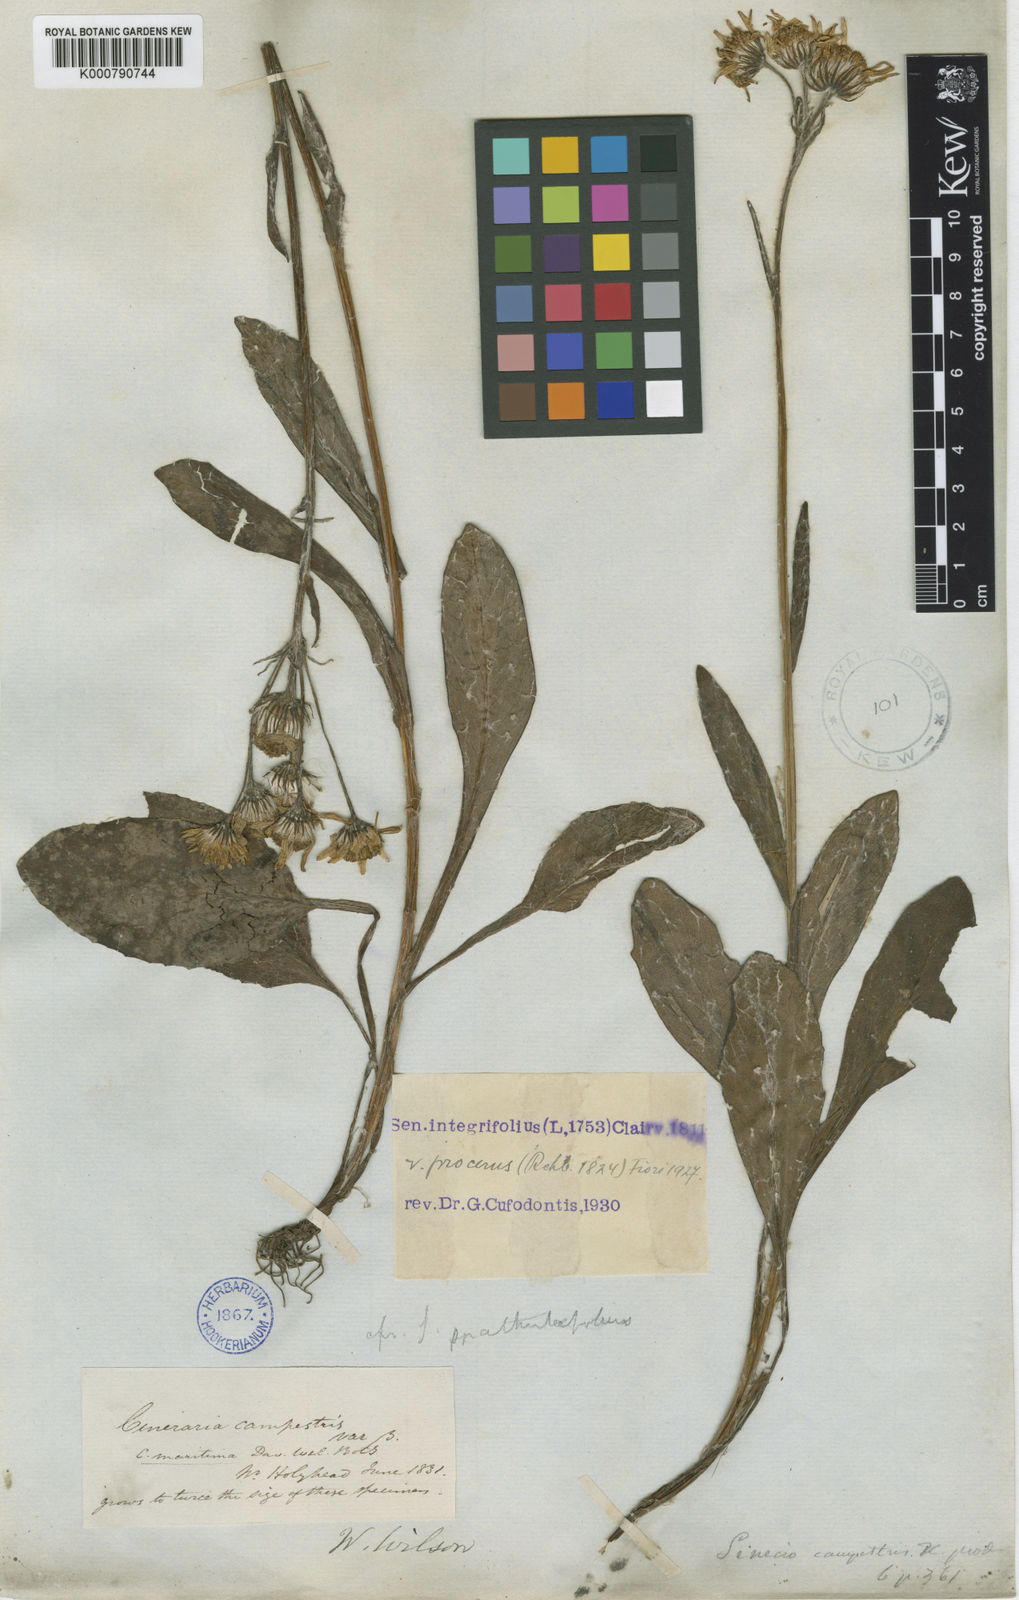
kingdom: Plantae
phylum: Tracheophyta
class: Magnoliopsida
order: Asterales
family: Asteraceae
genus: Tephroseris
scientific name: Tephroseris integrifolia
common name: Field fleawort
